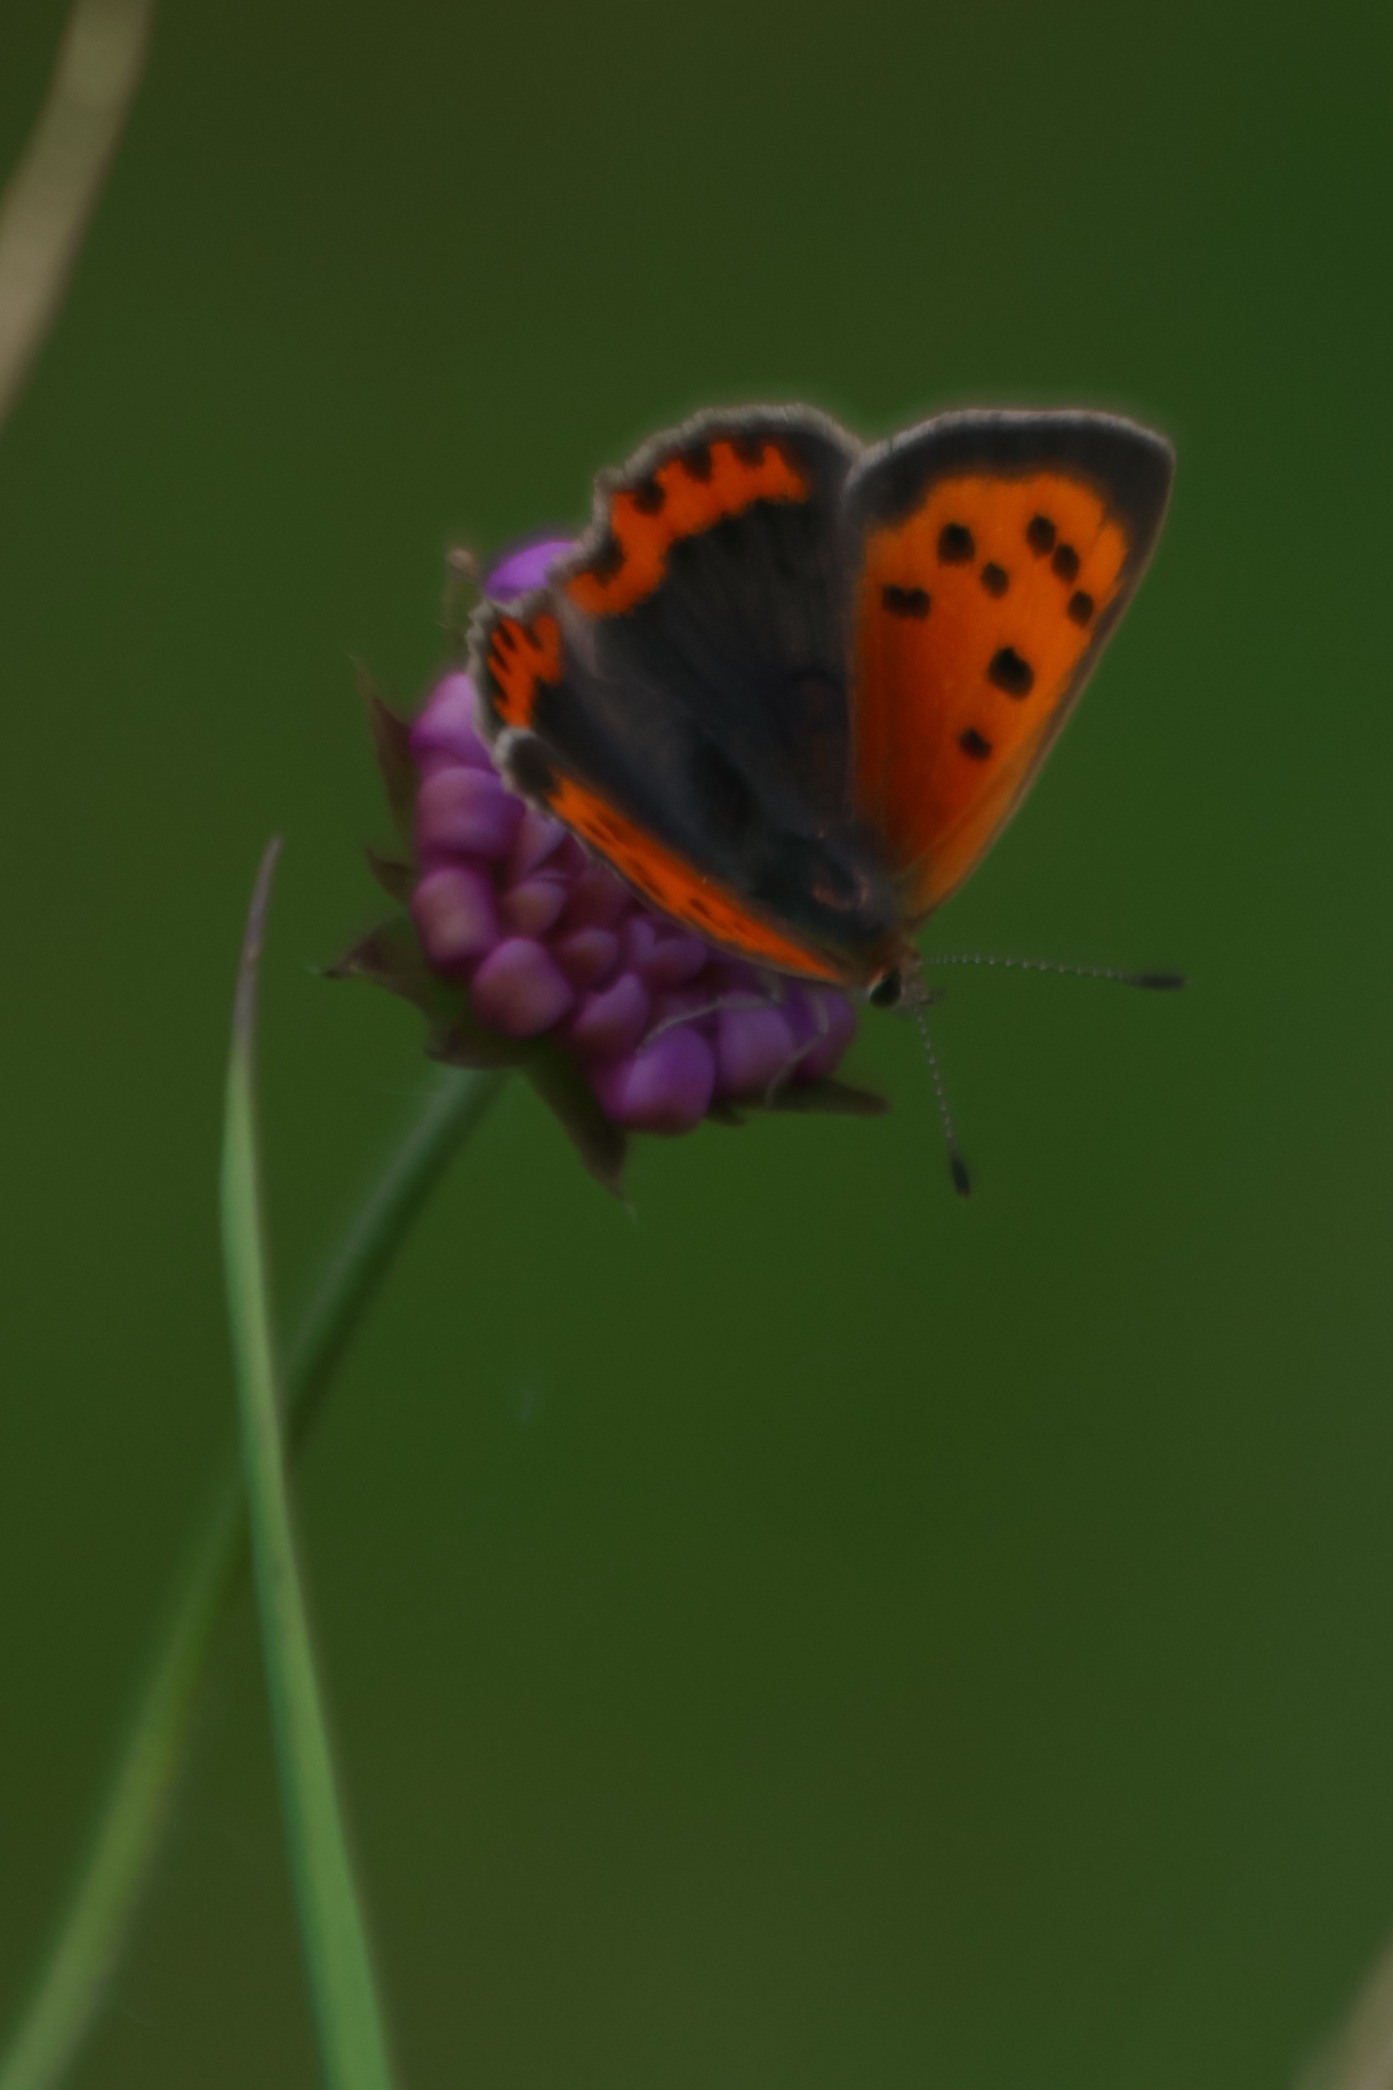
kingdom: Animalia
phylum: Arthropoda
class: Insecta
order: Lepidoptera
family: Lycaenidae
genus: Lycaena
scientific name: Lycaena phlaeas
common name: Lille ildfugl
